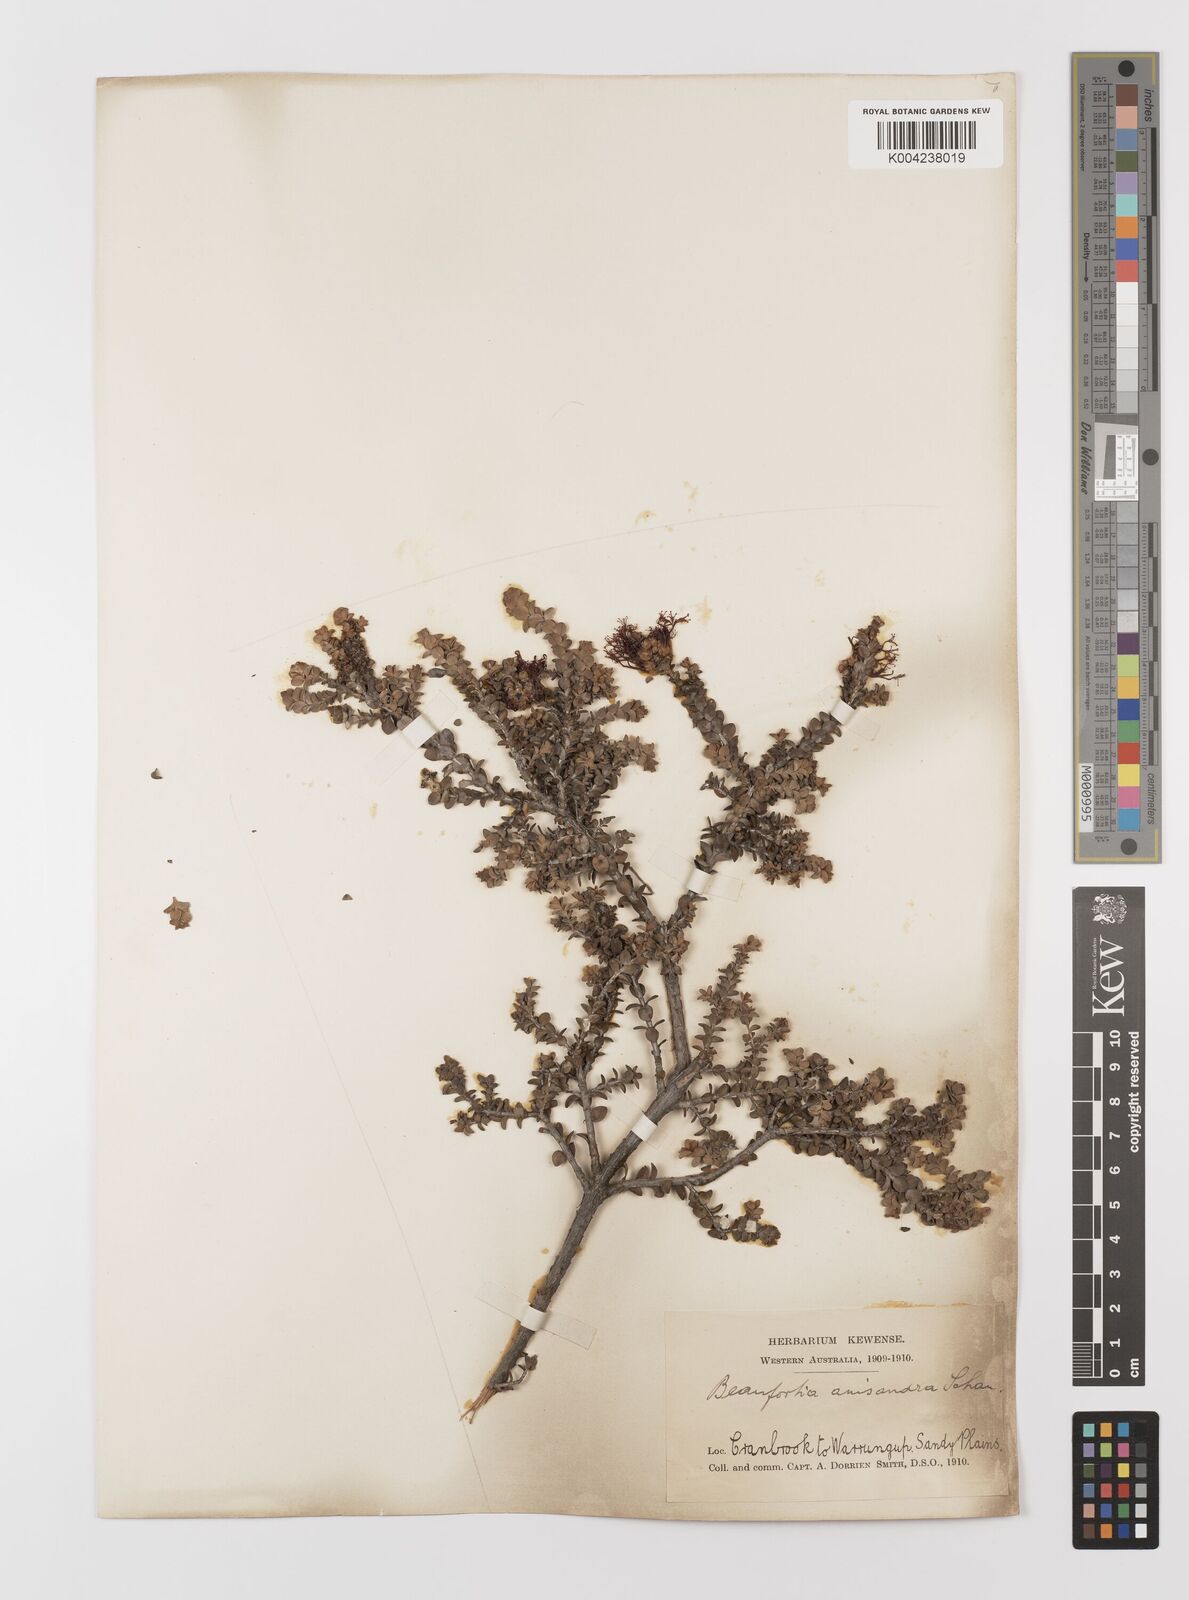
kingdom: Plantae
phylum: Tracheophyta
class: Magnoliopsida
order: Myrtales
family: Myrtaceae
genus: Melaleuca
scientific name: Melaleuca anisandra
